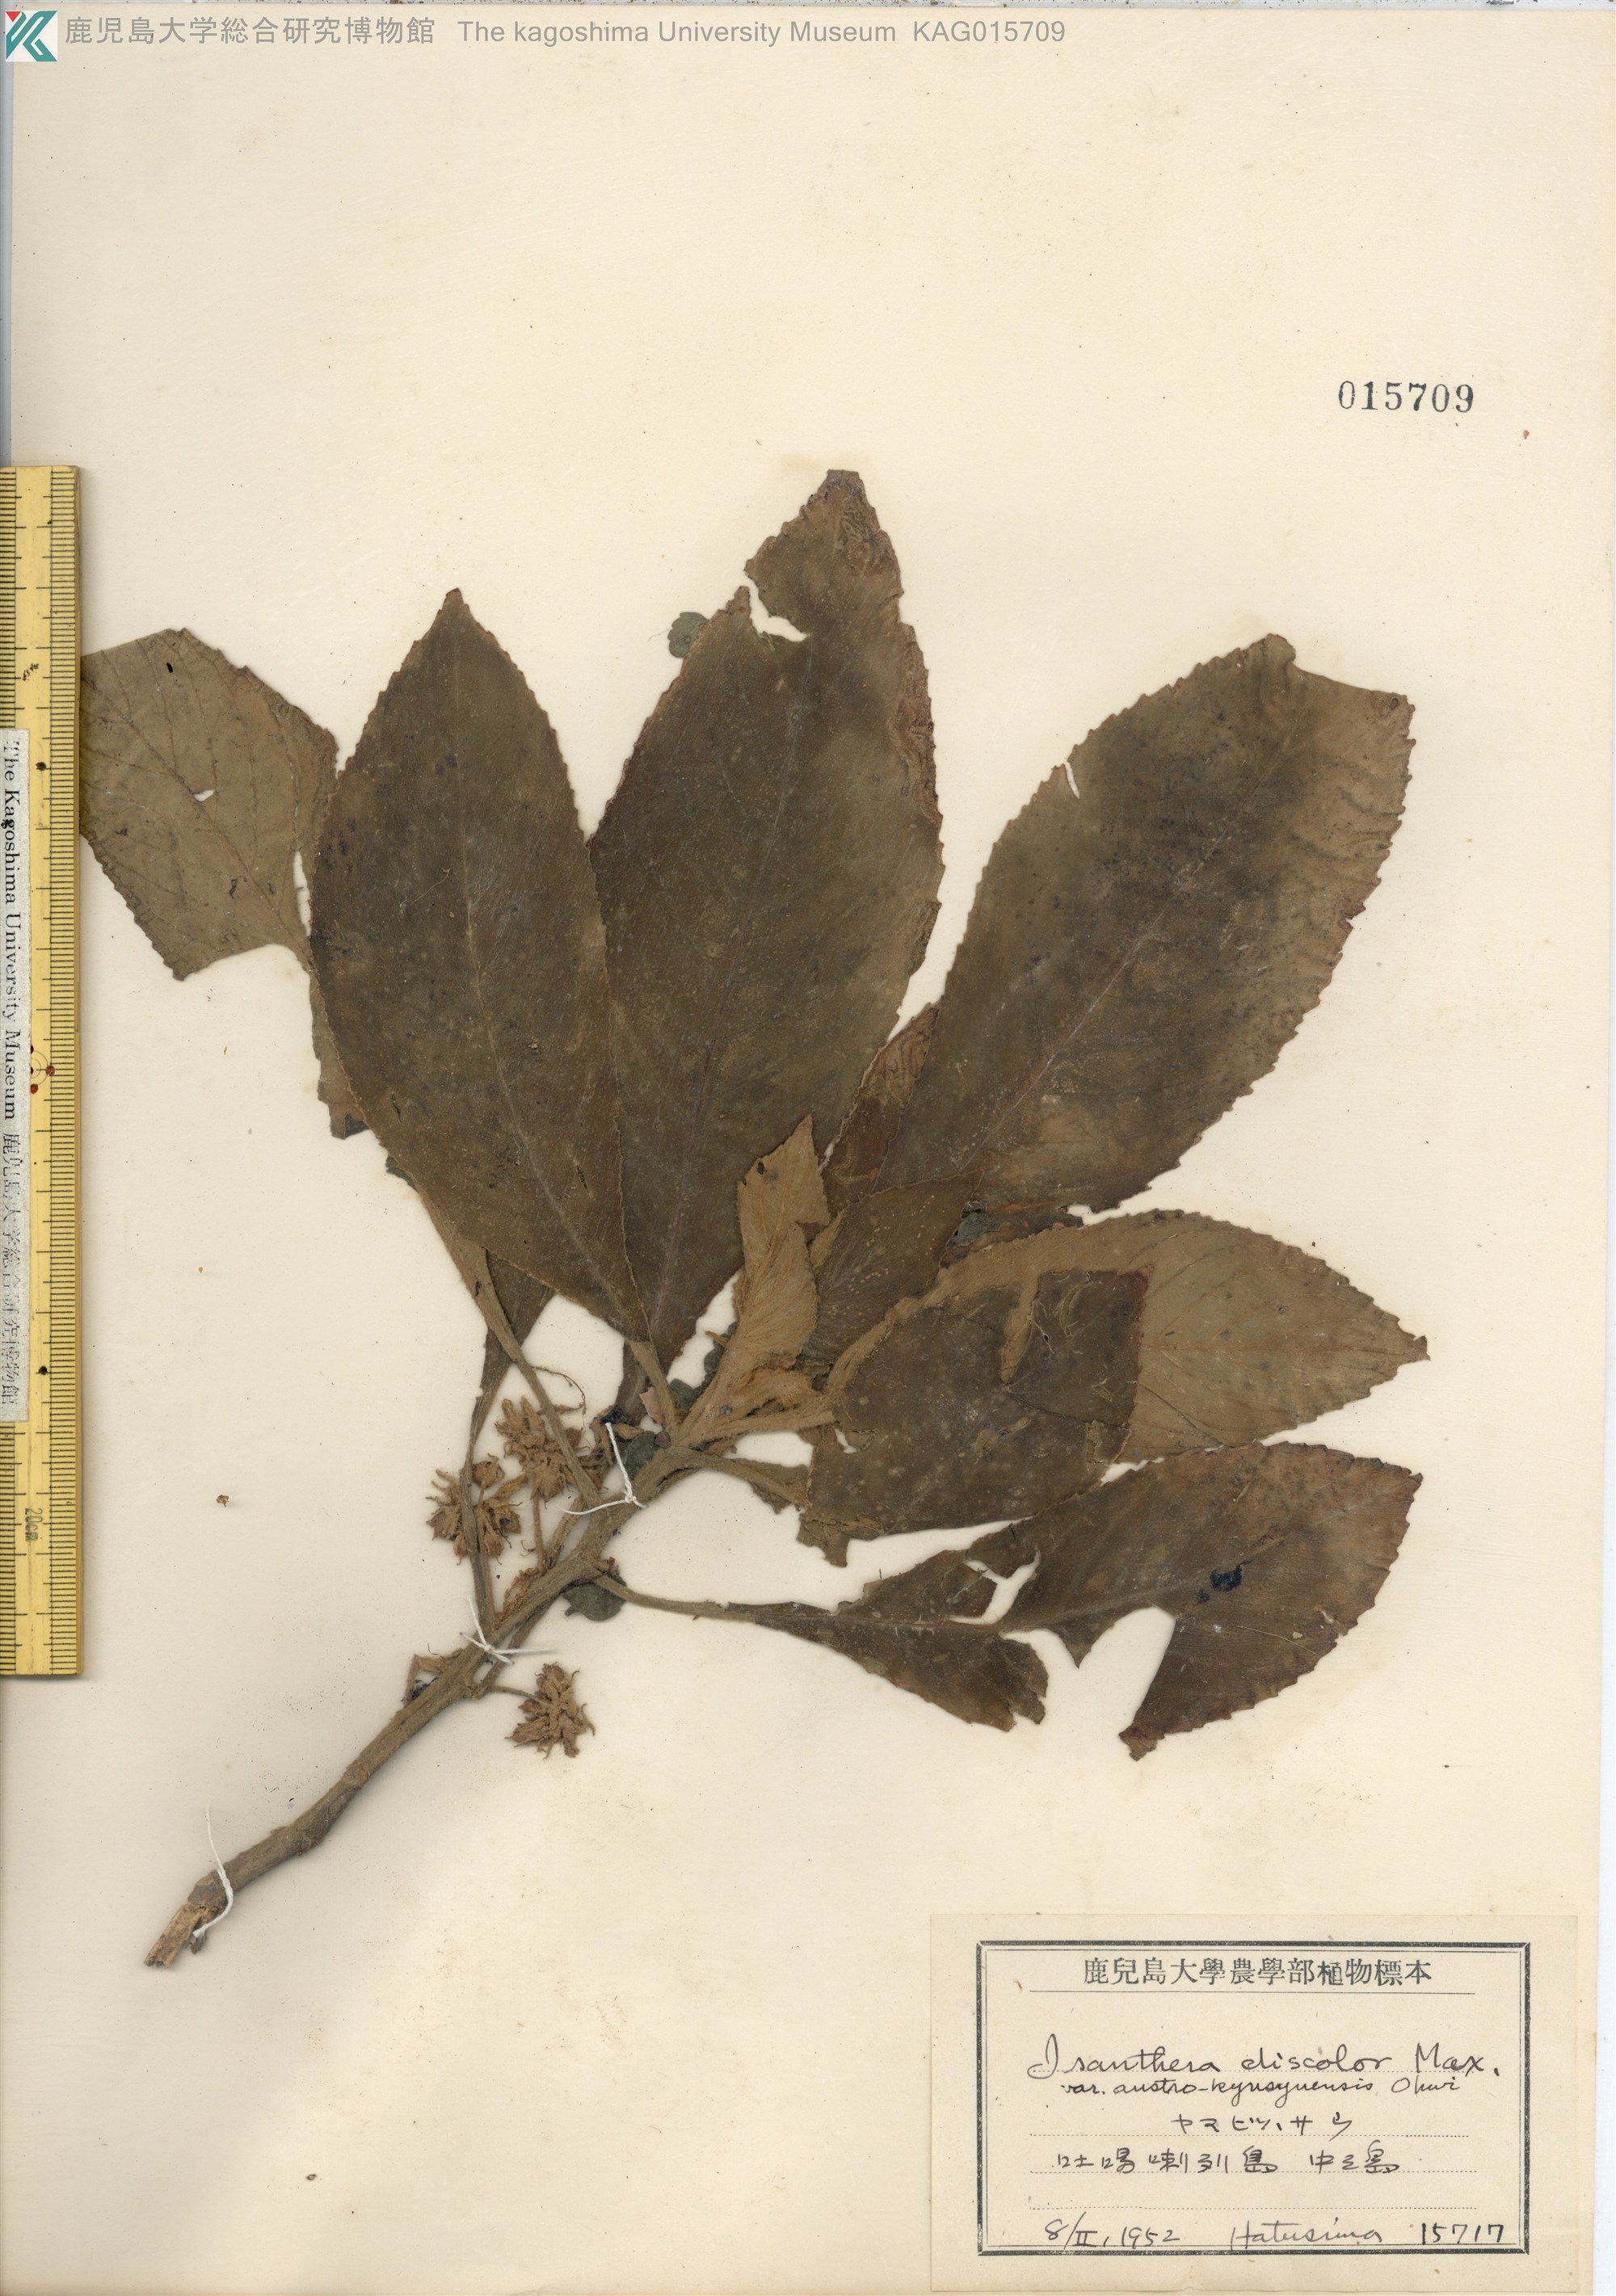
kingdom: Plantae
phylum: Tracheophyta
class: Magnoliopsida
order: Lamiales
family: Gesneriaceae
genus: Rhynchotechum
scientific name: Rhynchotechum discolor
